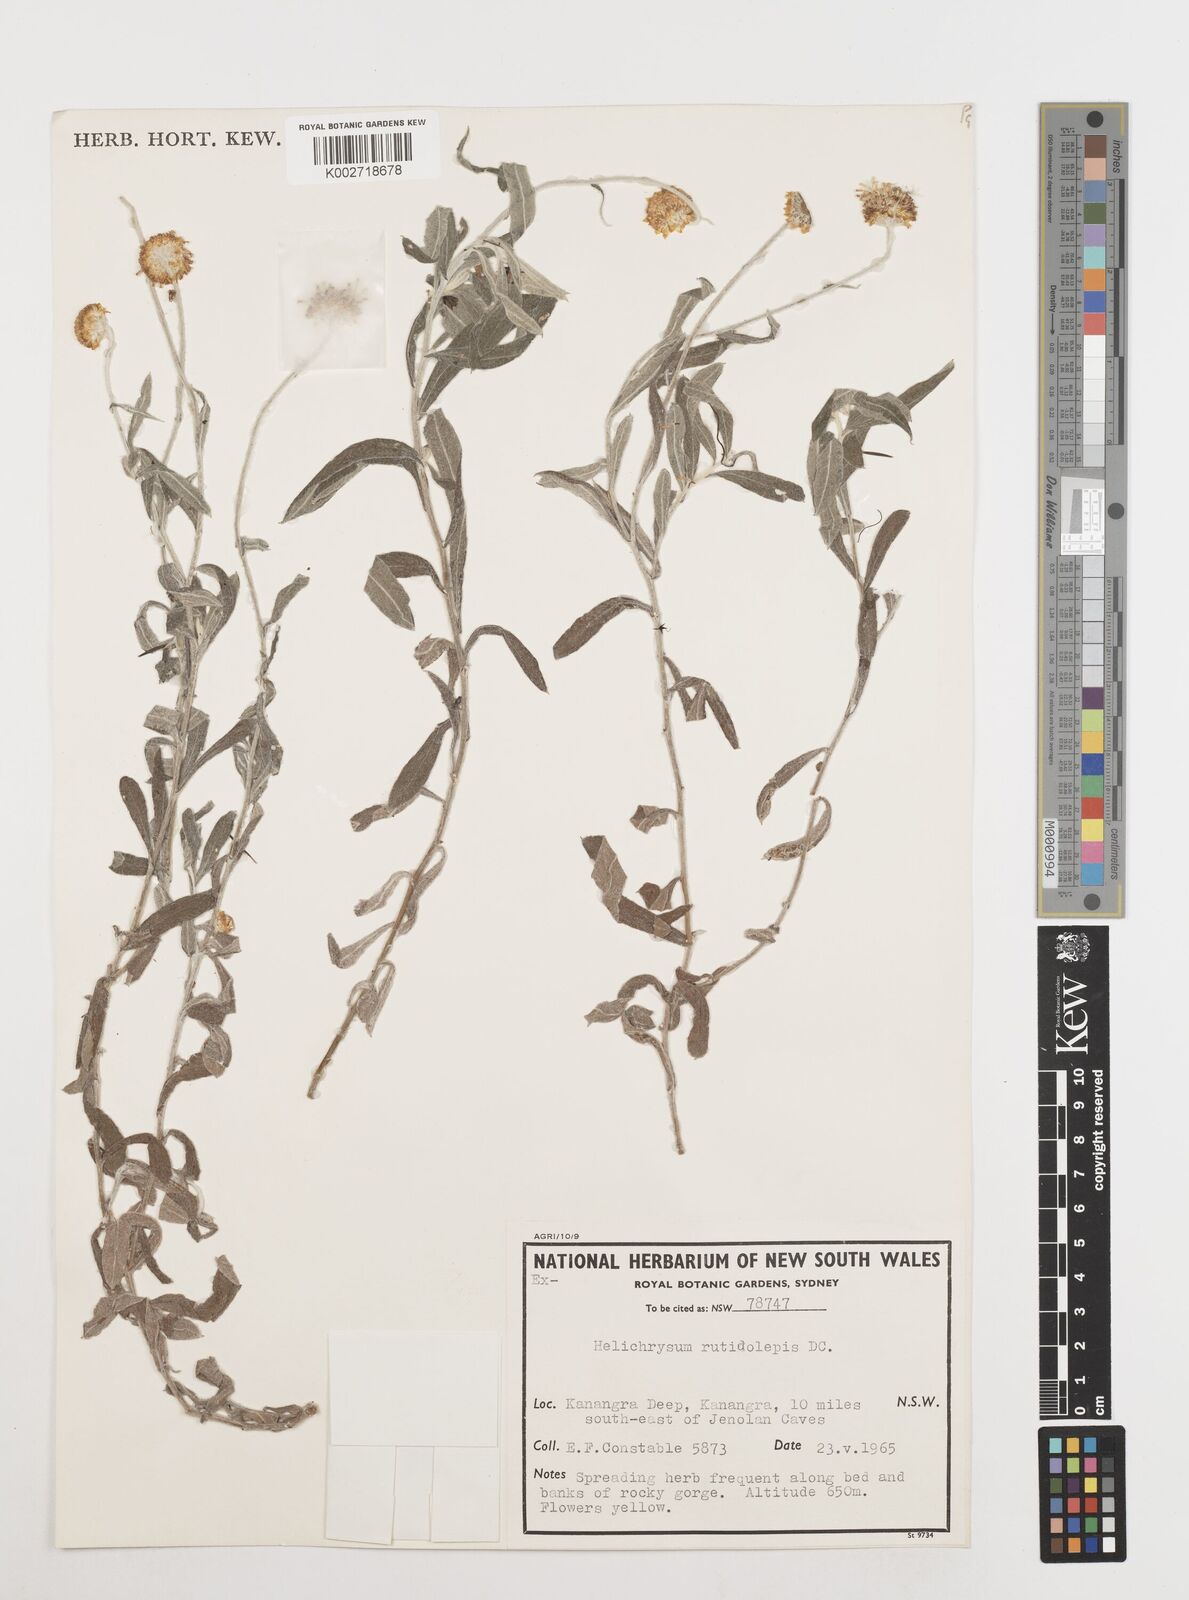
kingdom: Plantae
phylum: Tracheophyta
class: Magnoliopsida
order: Asterales
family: Asteraceae
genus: Coronidium
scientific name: Coronidium rutidolepis
